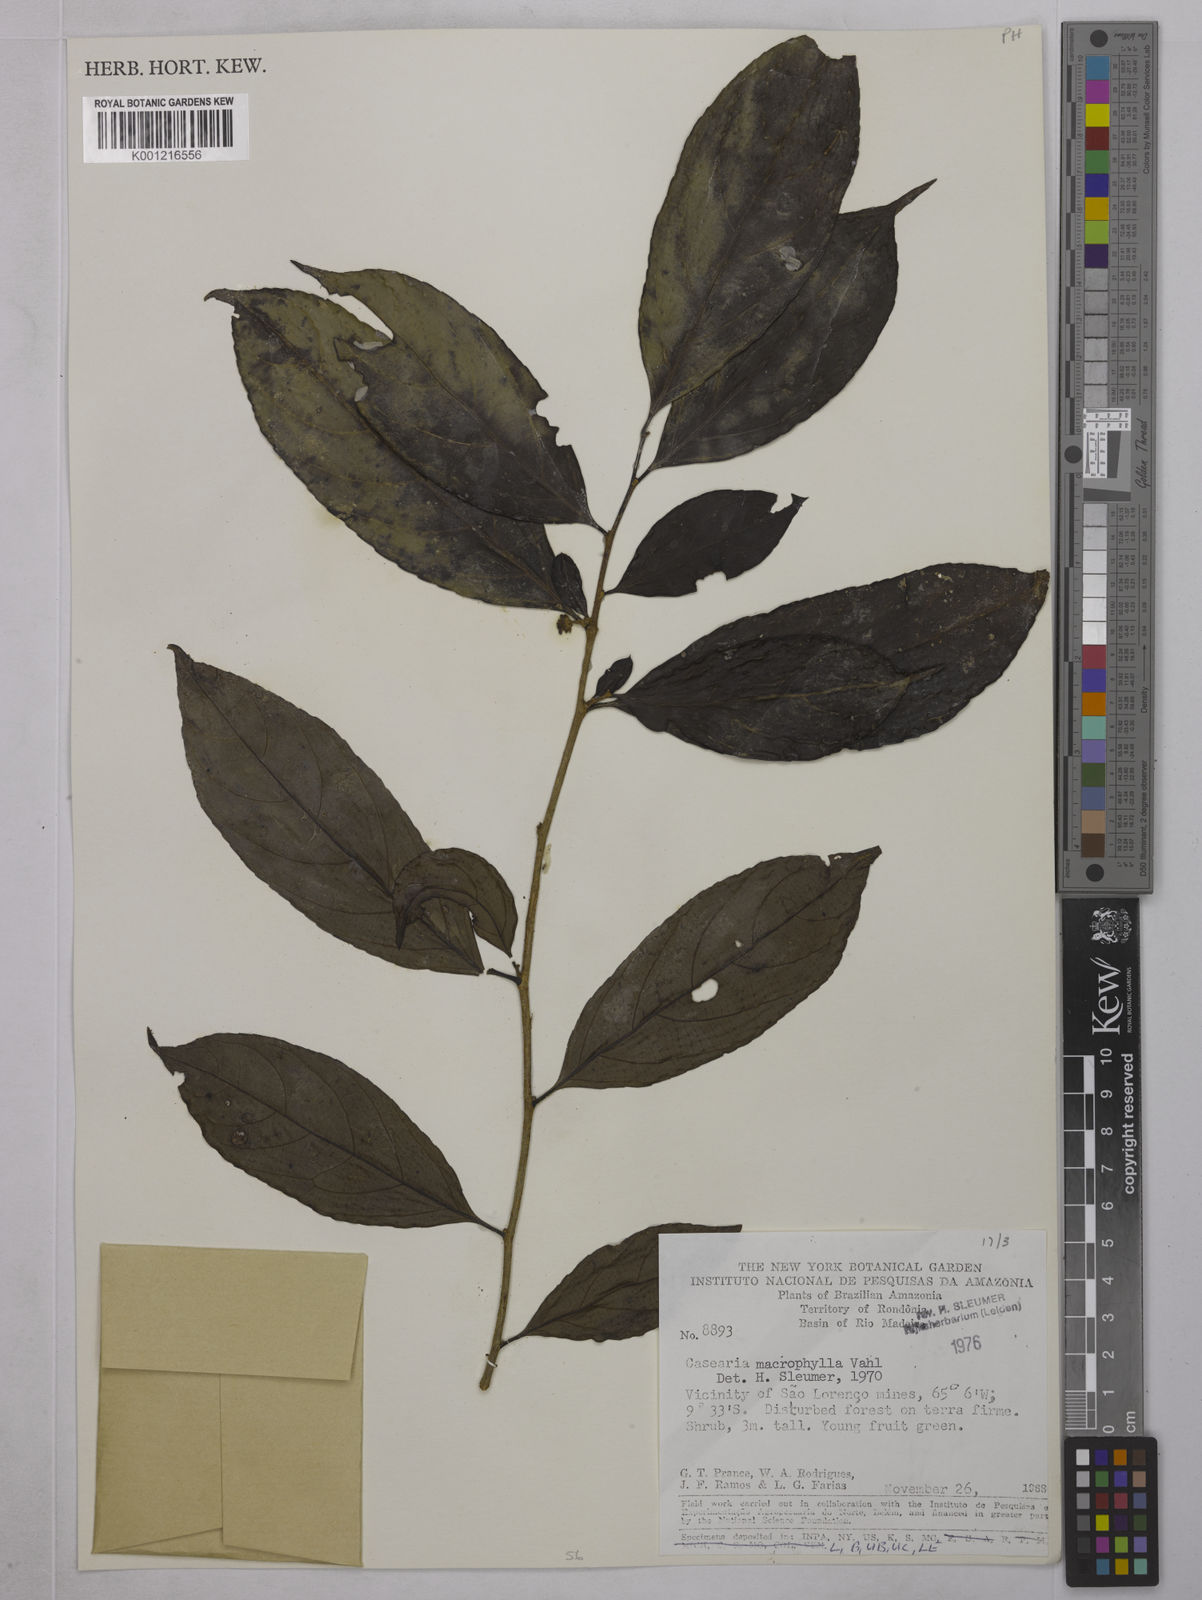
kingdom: Plantae
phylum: Tracheophyta
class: Magnoliopsida
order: Malpighiales
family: Salicaceae
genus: Casearia
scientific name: Casearia pitumba
